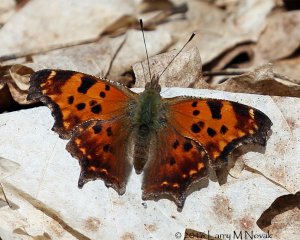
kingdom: Animalia
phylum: Arthropoda
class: Insecta
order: Lepidoptera
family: Nymphalidae
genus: Polygonia
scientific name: Polygonia comma
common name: Eastern Comma
